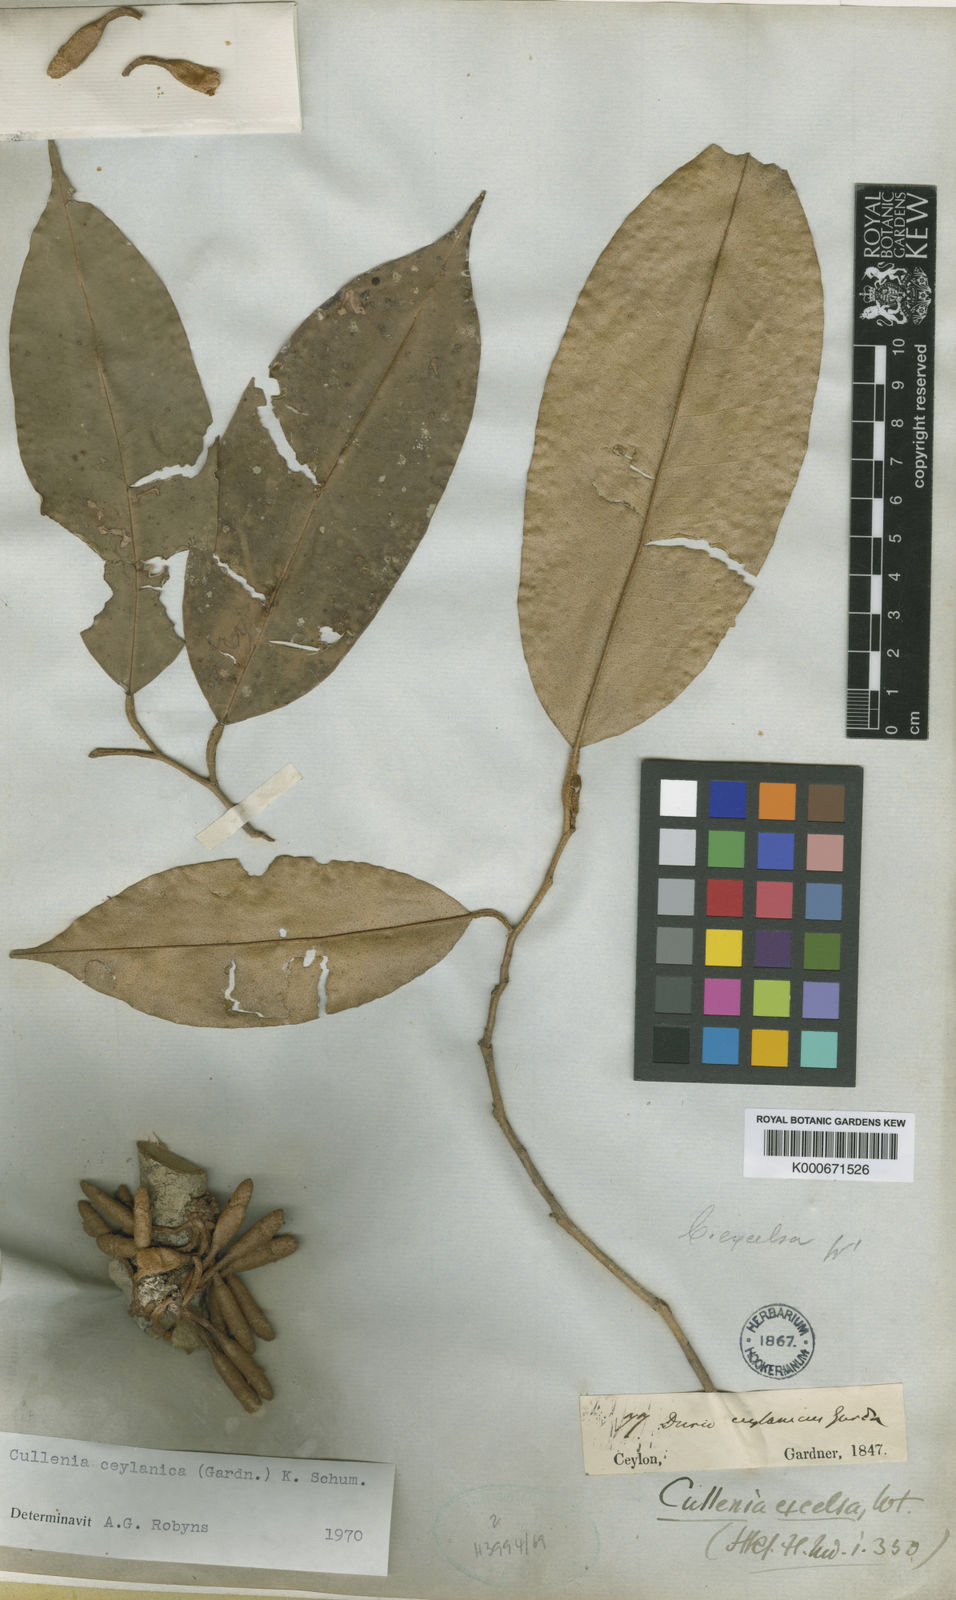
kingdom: Plantae
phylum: Tracheophyta
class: Magnoliopsida
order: Malvales
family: Malvaceae
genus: Cullenia
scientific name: Cullenia ceylanica
